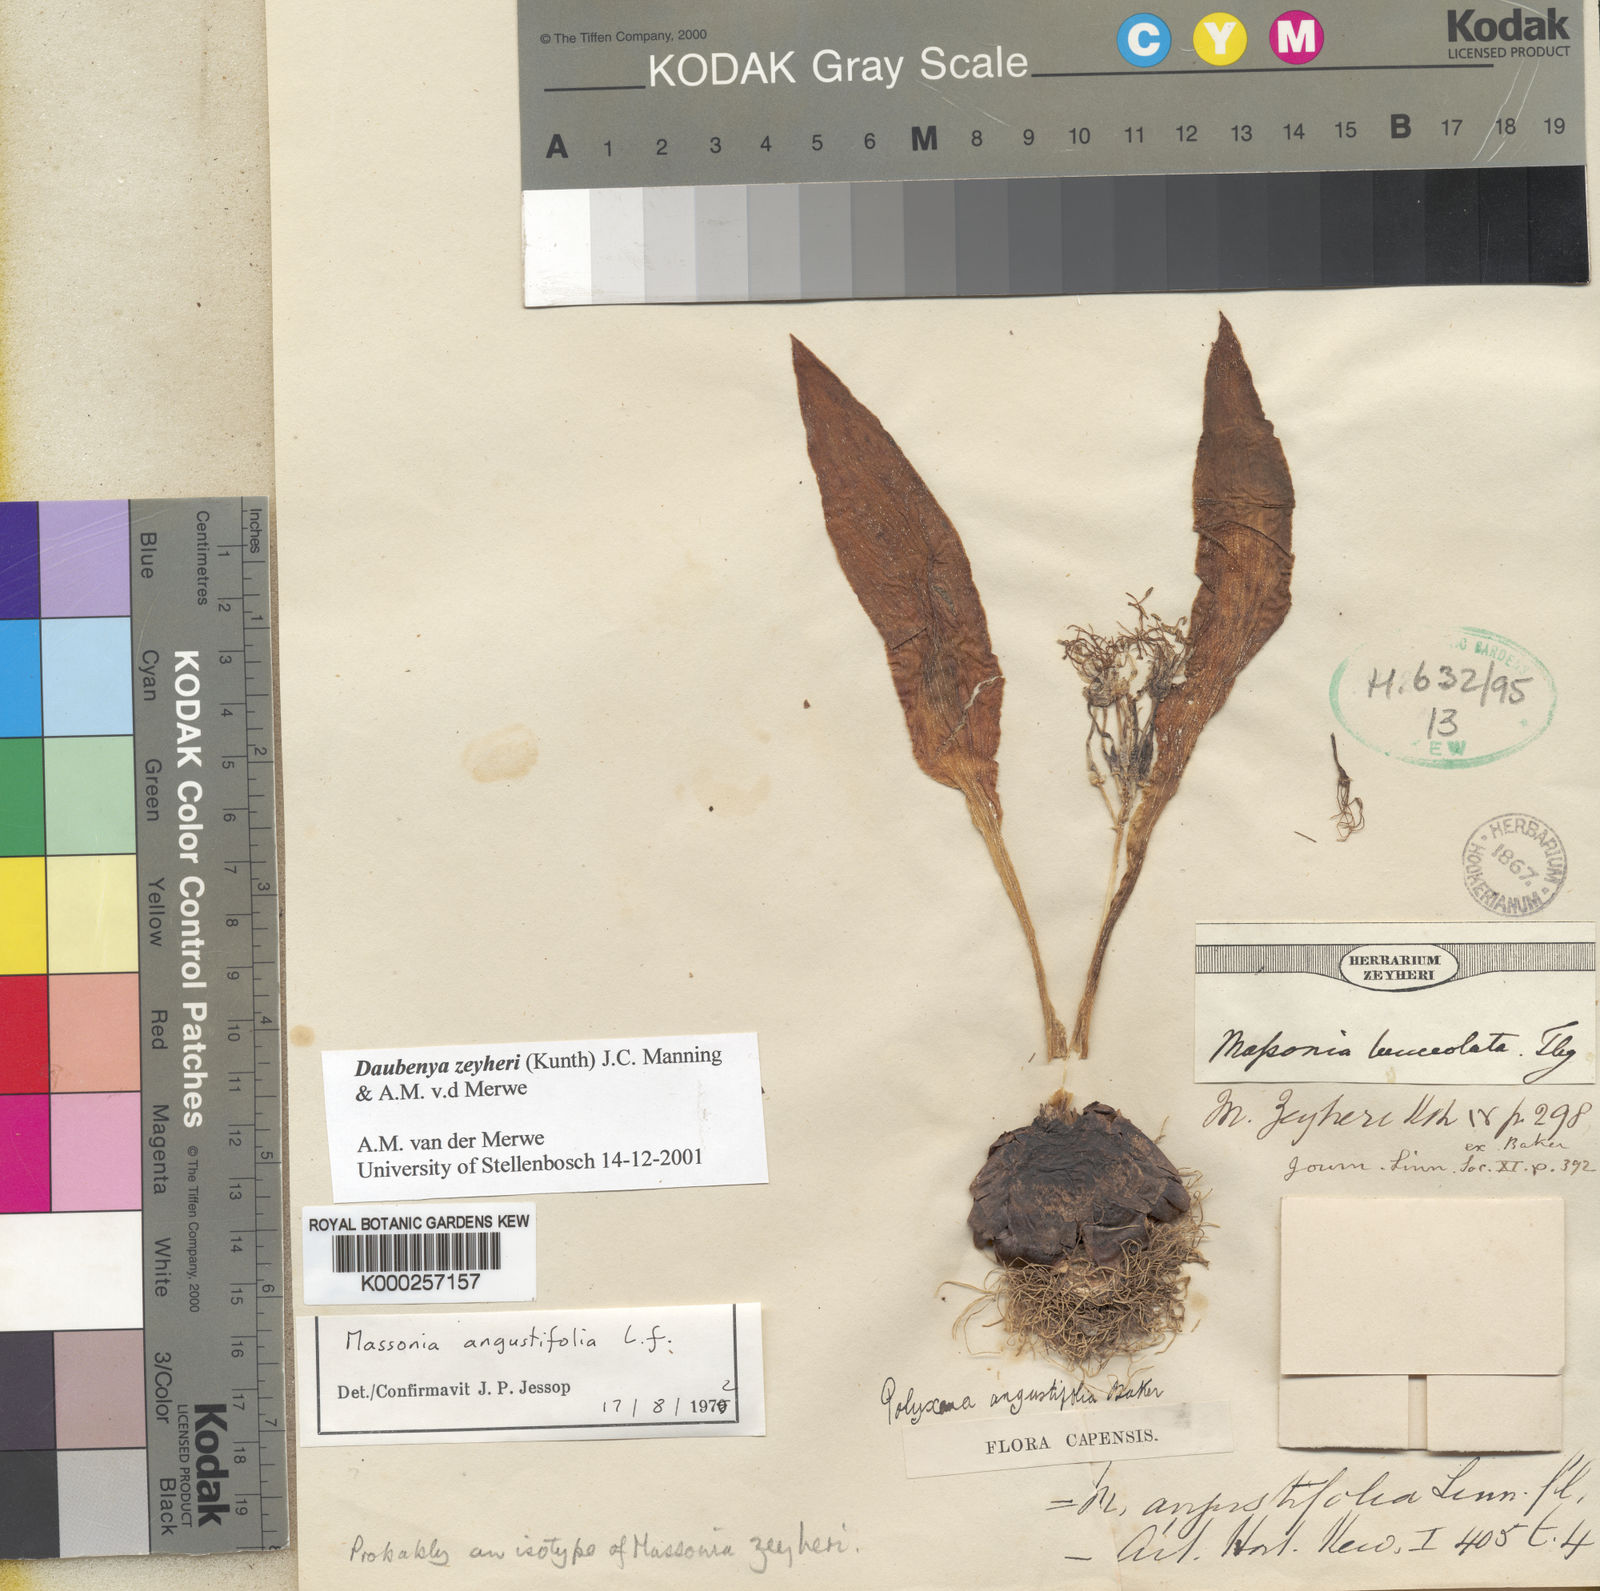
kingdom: Plantae
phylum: Tracheophyta
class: Liliopsida
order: Asparagales
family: Asparagaceae
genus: Daubenya
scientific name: Daubenya zeyheri
